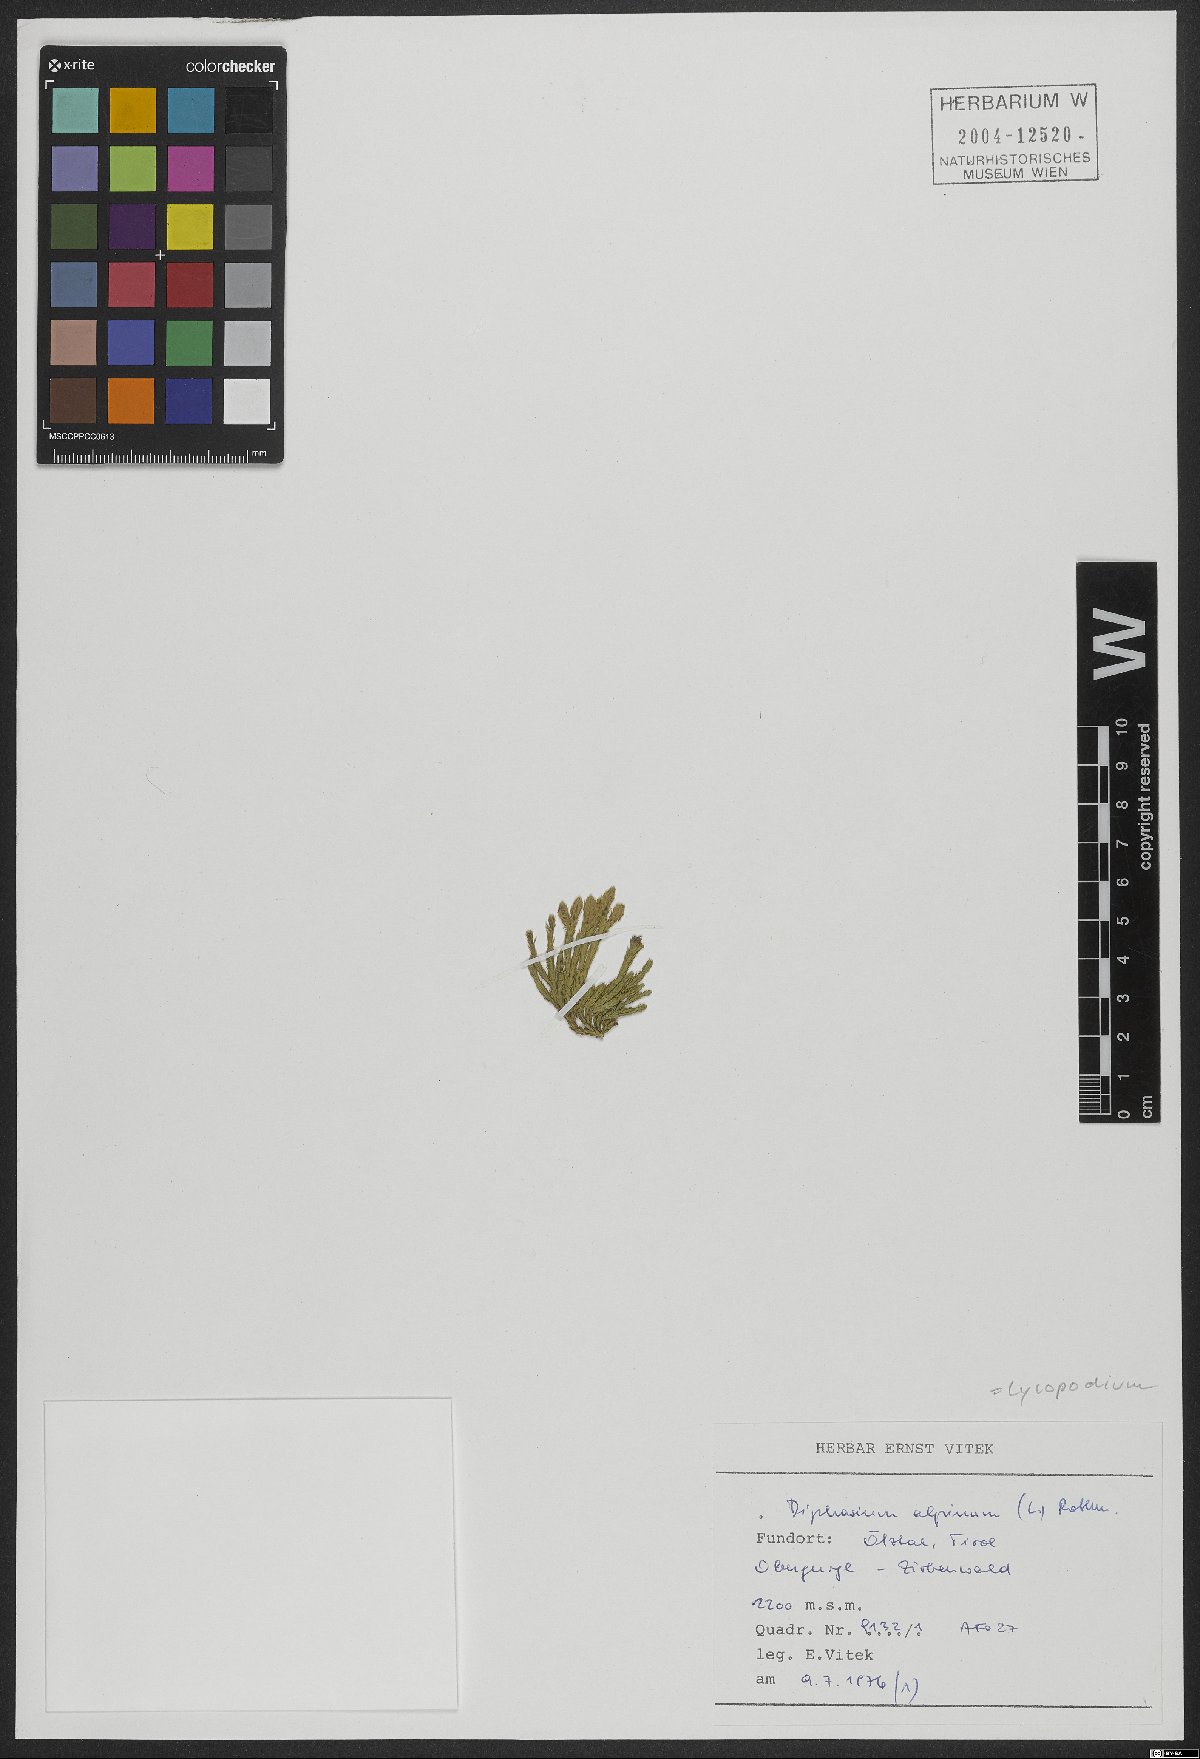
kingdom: Plantae
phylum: Tracheophyta
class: Lycopodiopsida
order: Lycopodiales
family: Lycopodiaceae
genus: Diphasiastrum
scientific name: Diphasiastrum alpinum
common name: Alpine clubmoss
